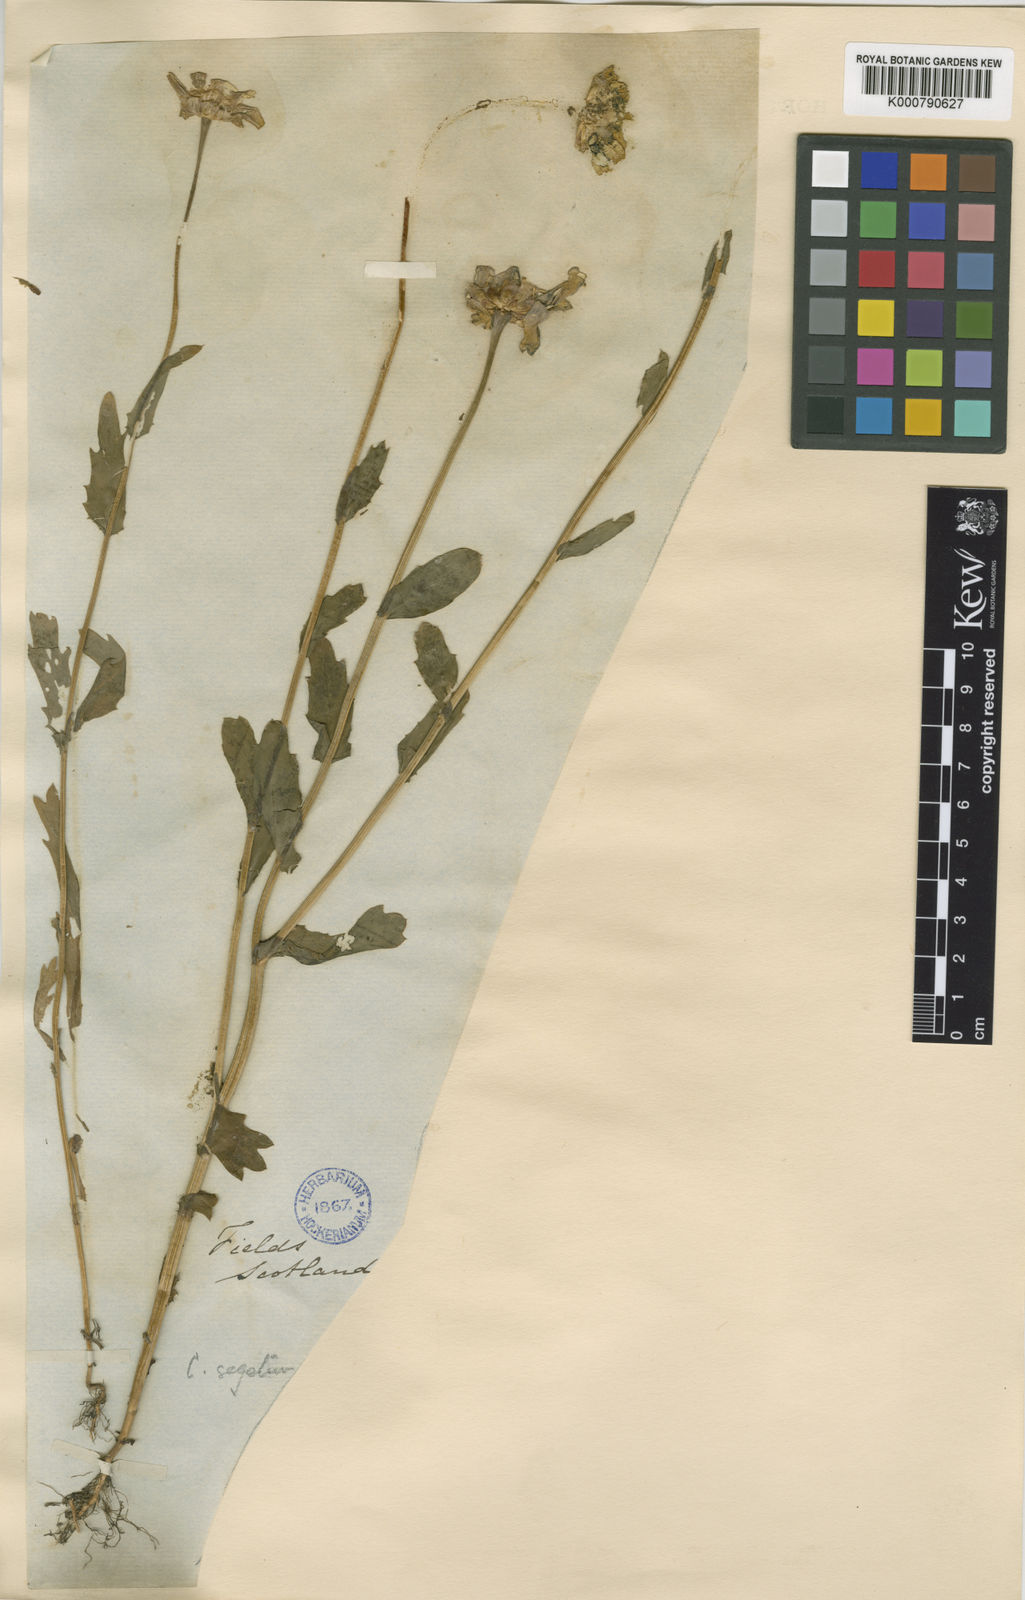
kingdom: Plantae
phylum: Tracheophyta
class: Magnoliopsida
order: Asterales
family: Asteraceae
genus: Glebionis
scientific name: Glebionis
